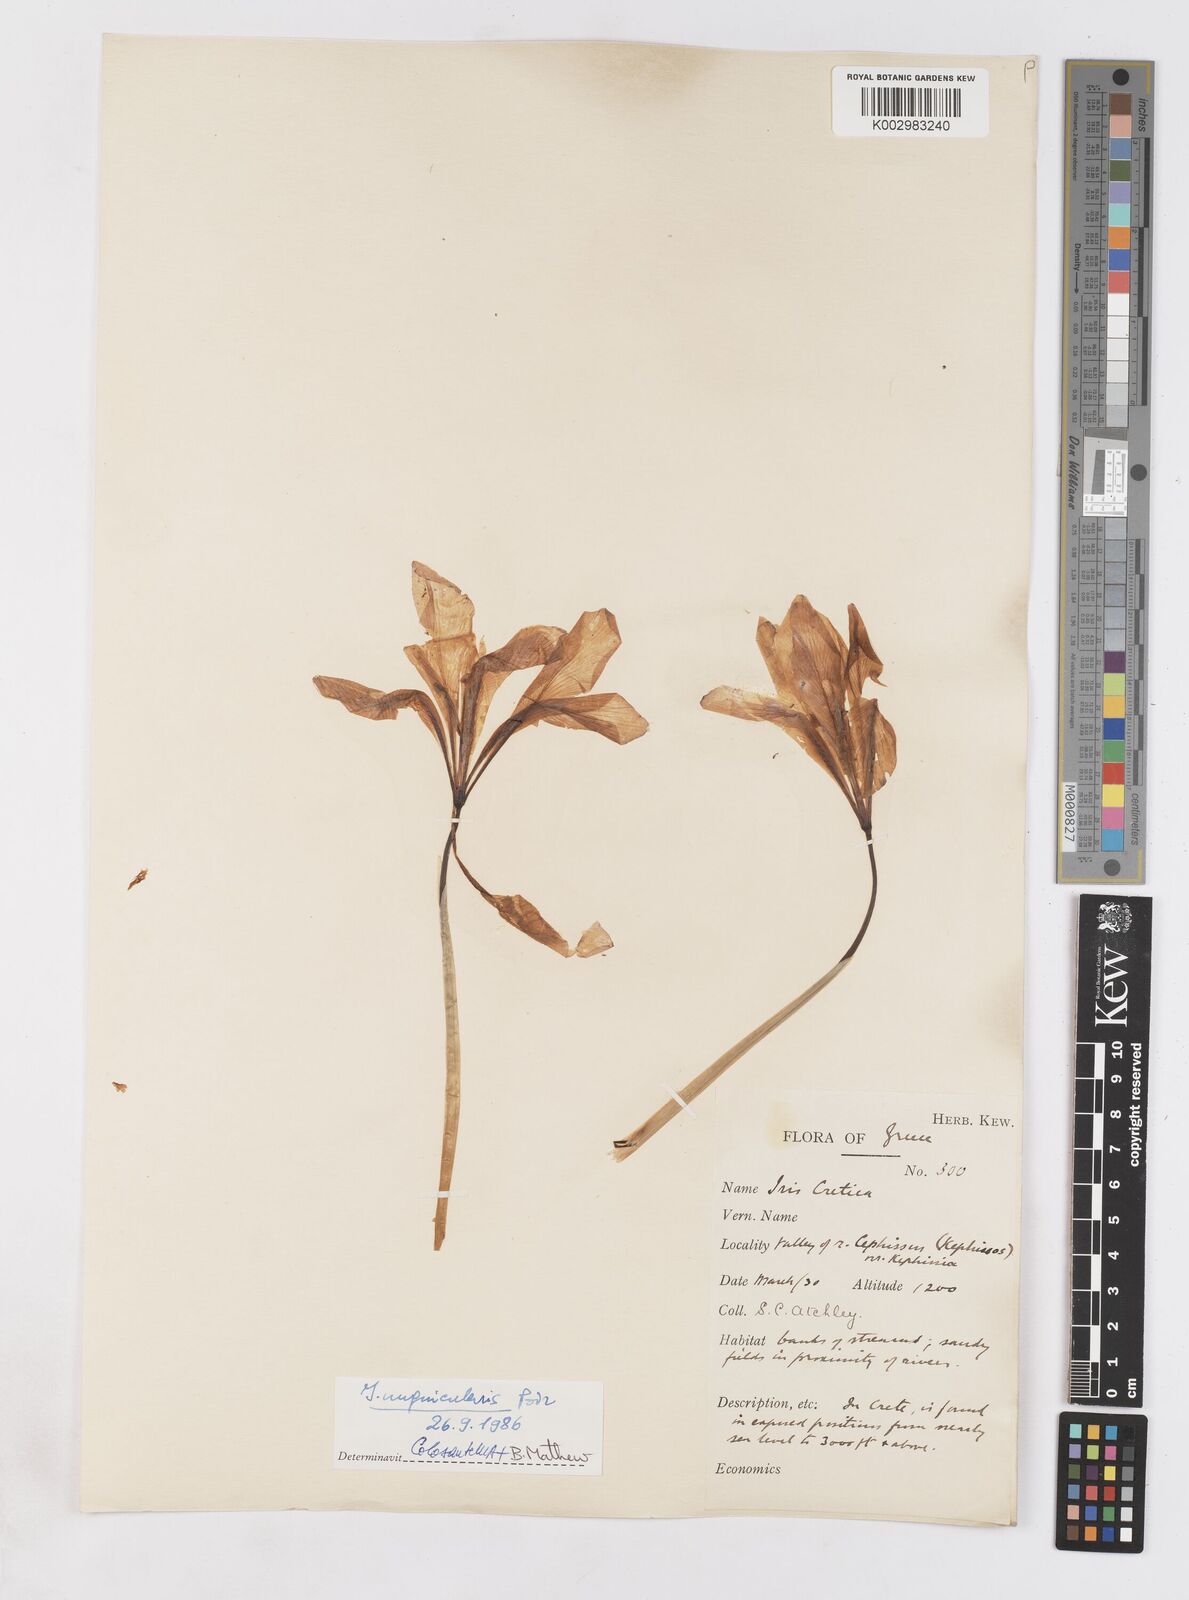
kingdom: Plantae
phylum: Tracheophyta
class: Liliopsida
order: Asparagales
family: Iridaceae
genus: Iris
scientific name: Iris unguicularis
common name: Algerian iris
